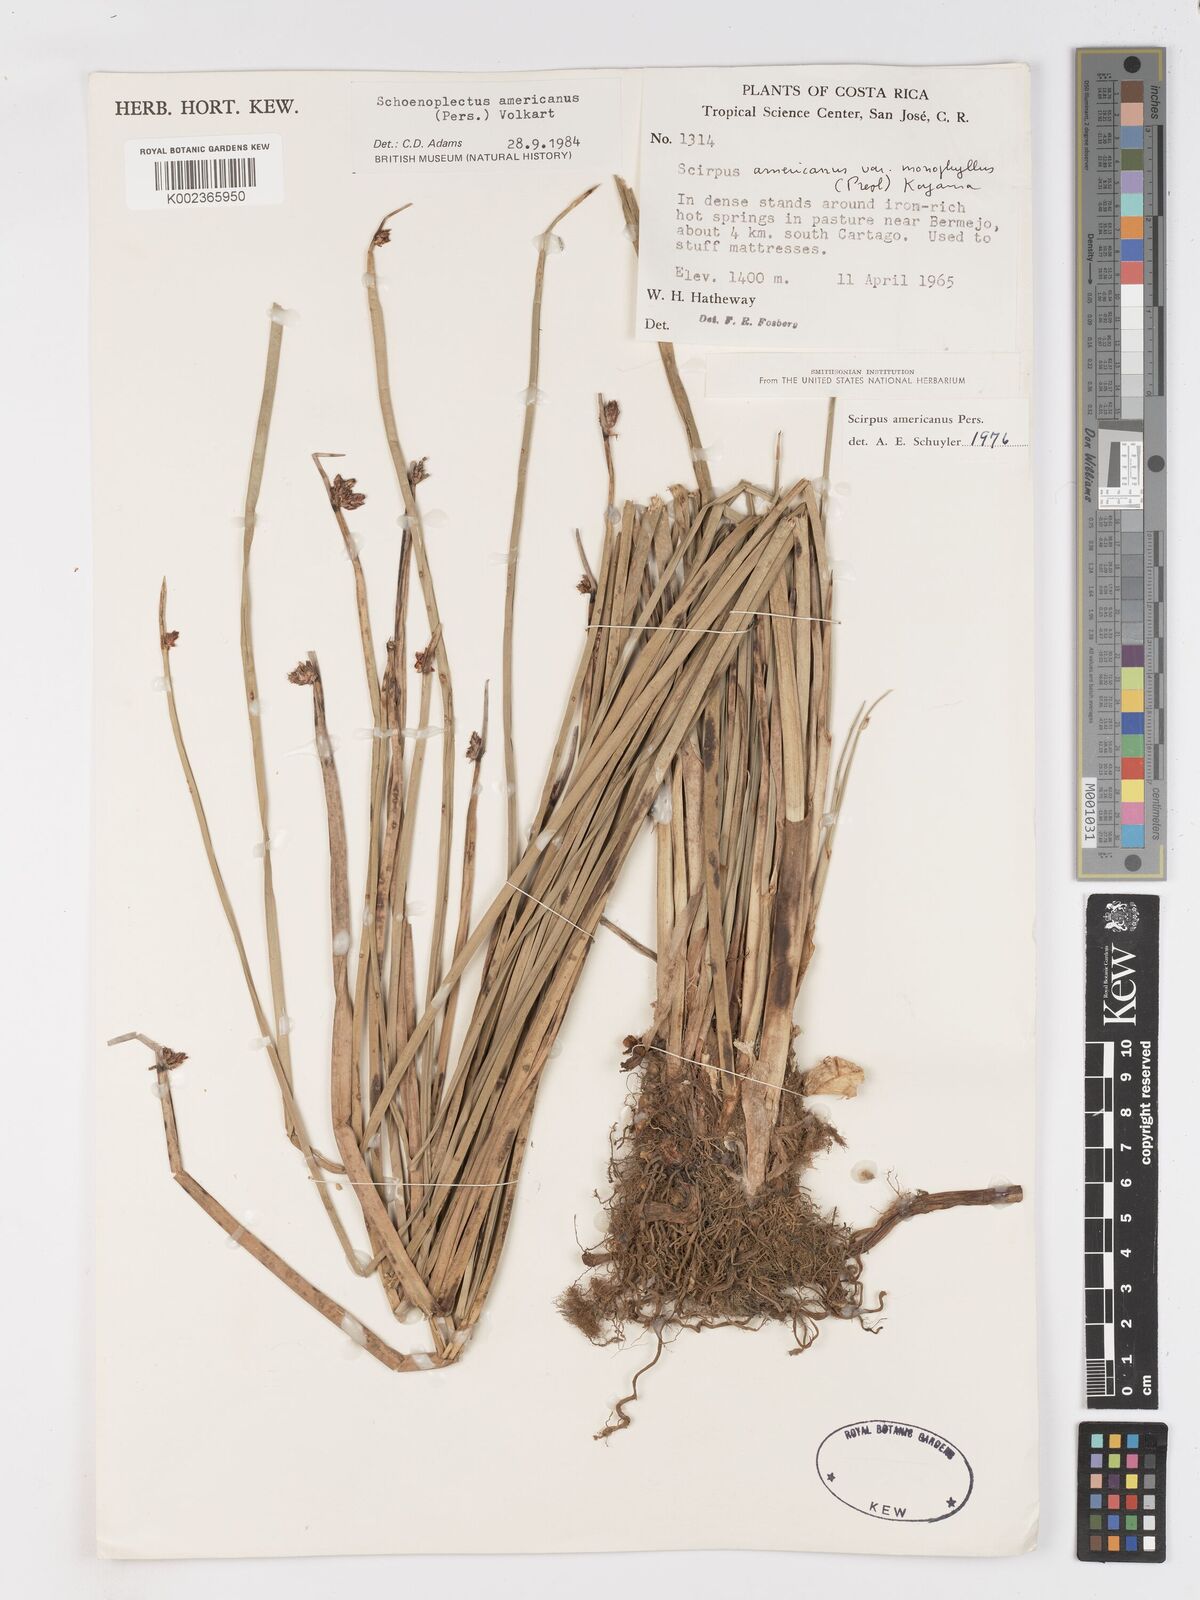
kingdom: Plantae
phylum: Tracheophyta
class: Liliopsida
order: Poales
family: Cyperaceae
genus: Schoenoplectus
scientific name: Schoenoplectus americanus
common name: American three-square bulrush
